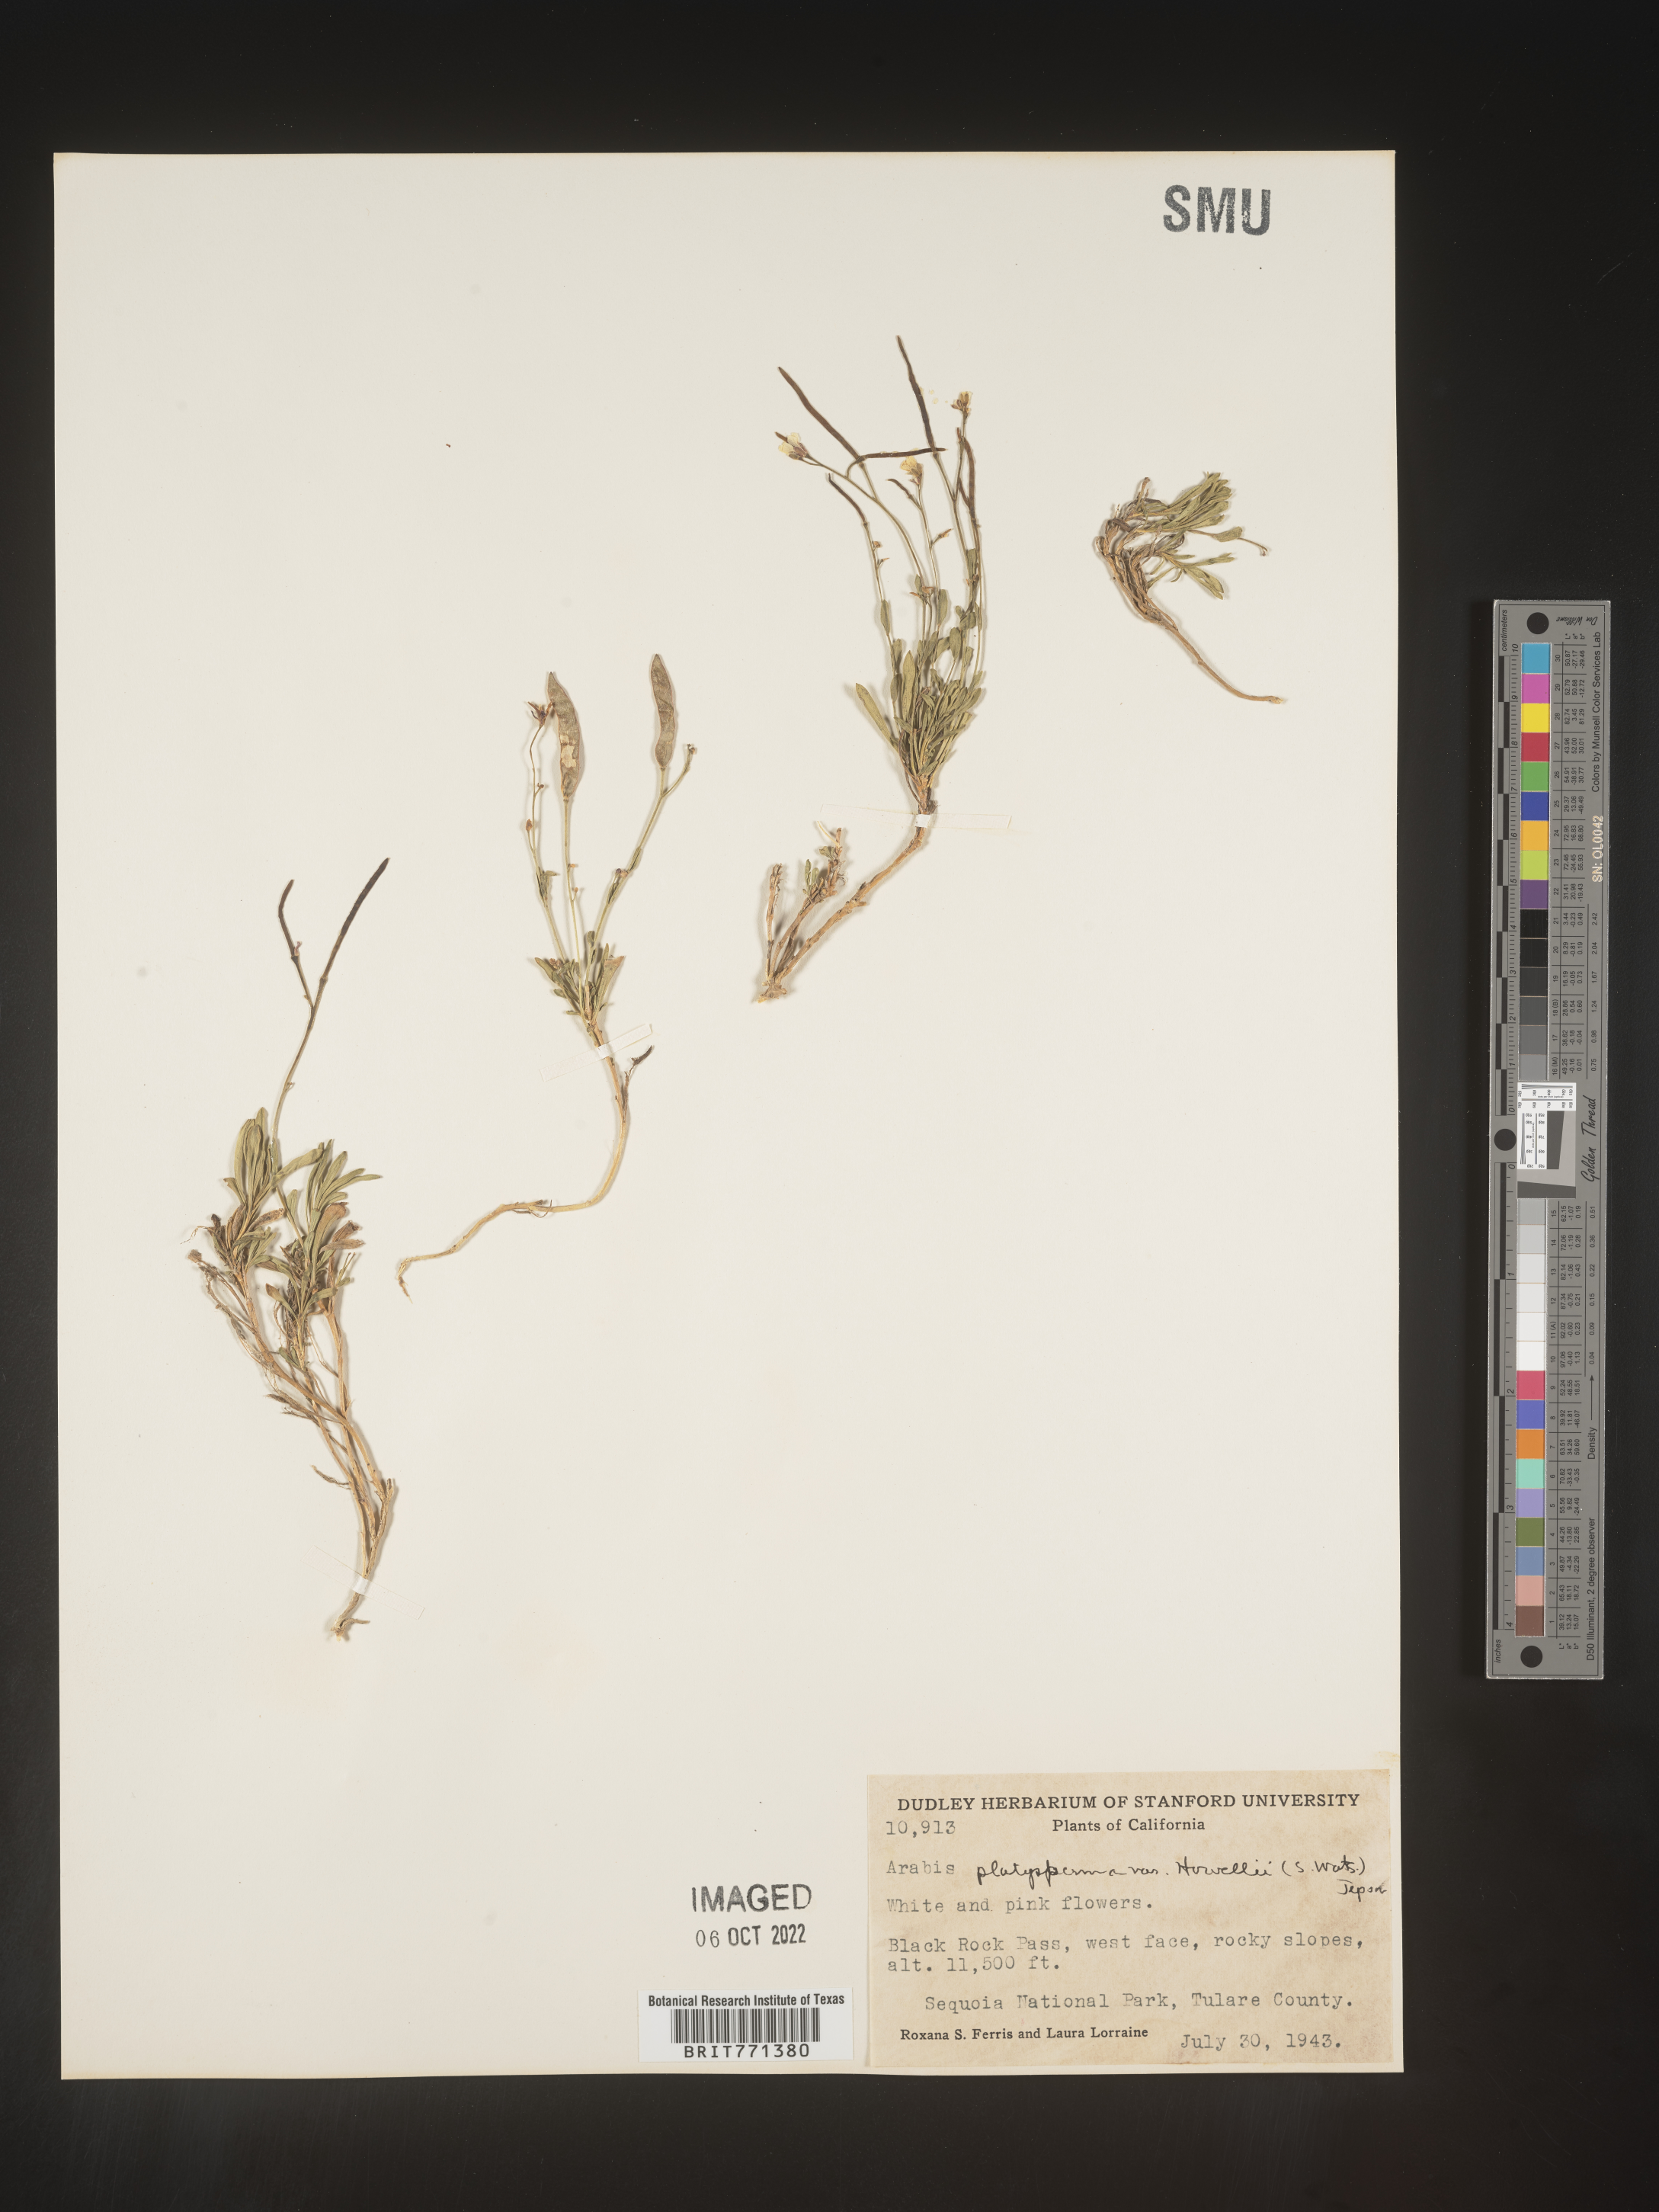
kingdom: Plantae
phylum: Tracheophyta
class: Magnoliopsida
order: Brassicales
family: Brassicaceae
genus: Arabis
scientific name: Arabis
